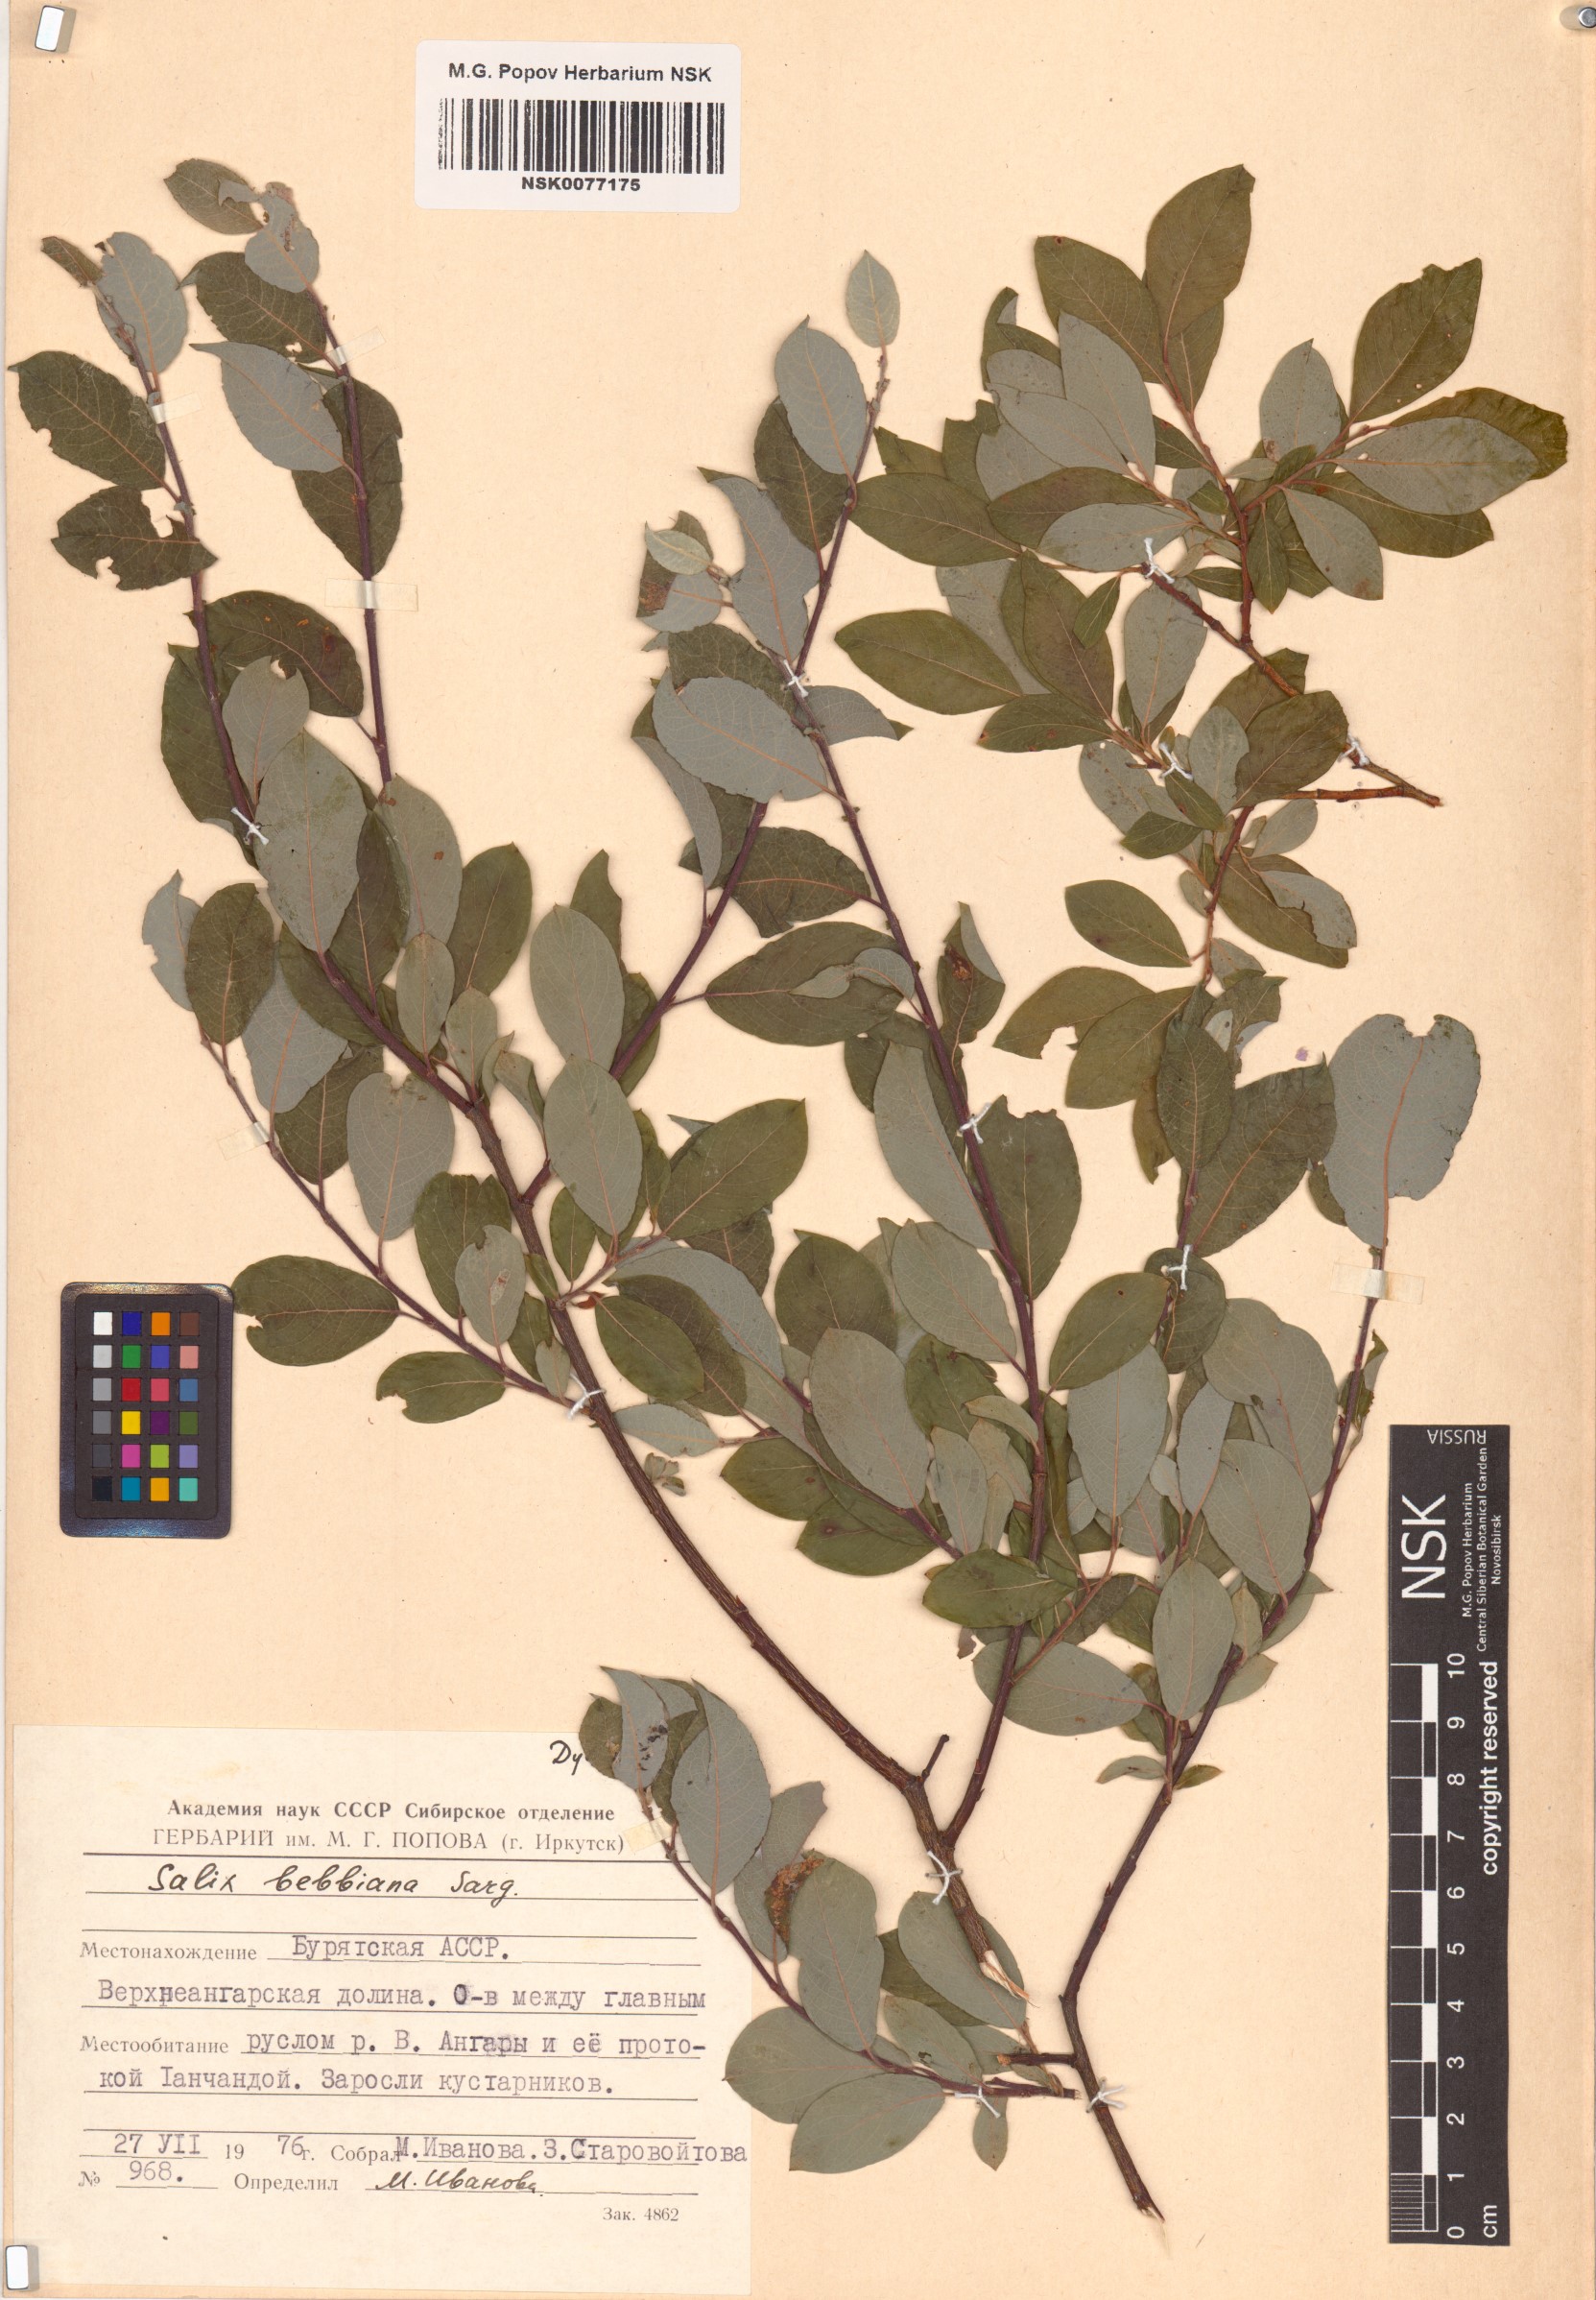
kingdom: Plantae
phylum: Tracheophyta
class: Magnoliopsida
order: Malpighiales
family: Salicaceae
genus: Salix
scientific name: Salix bebbiana
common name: Bebb's willow
